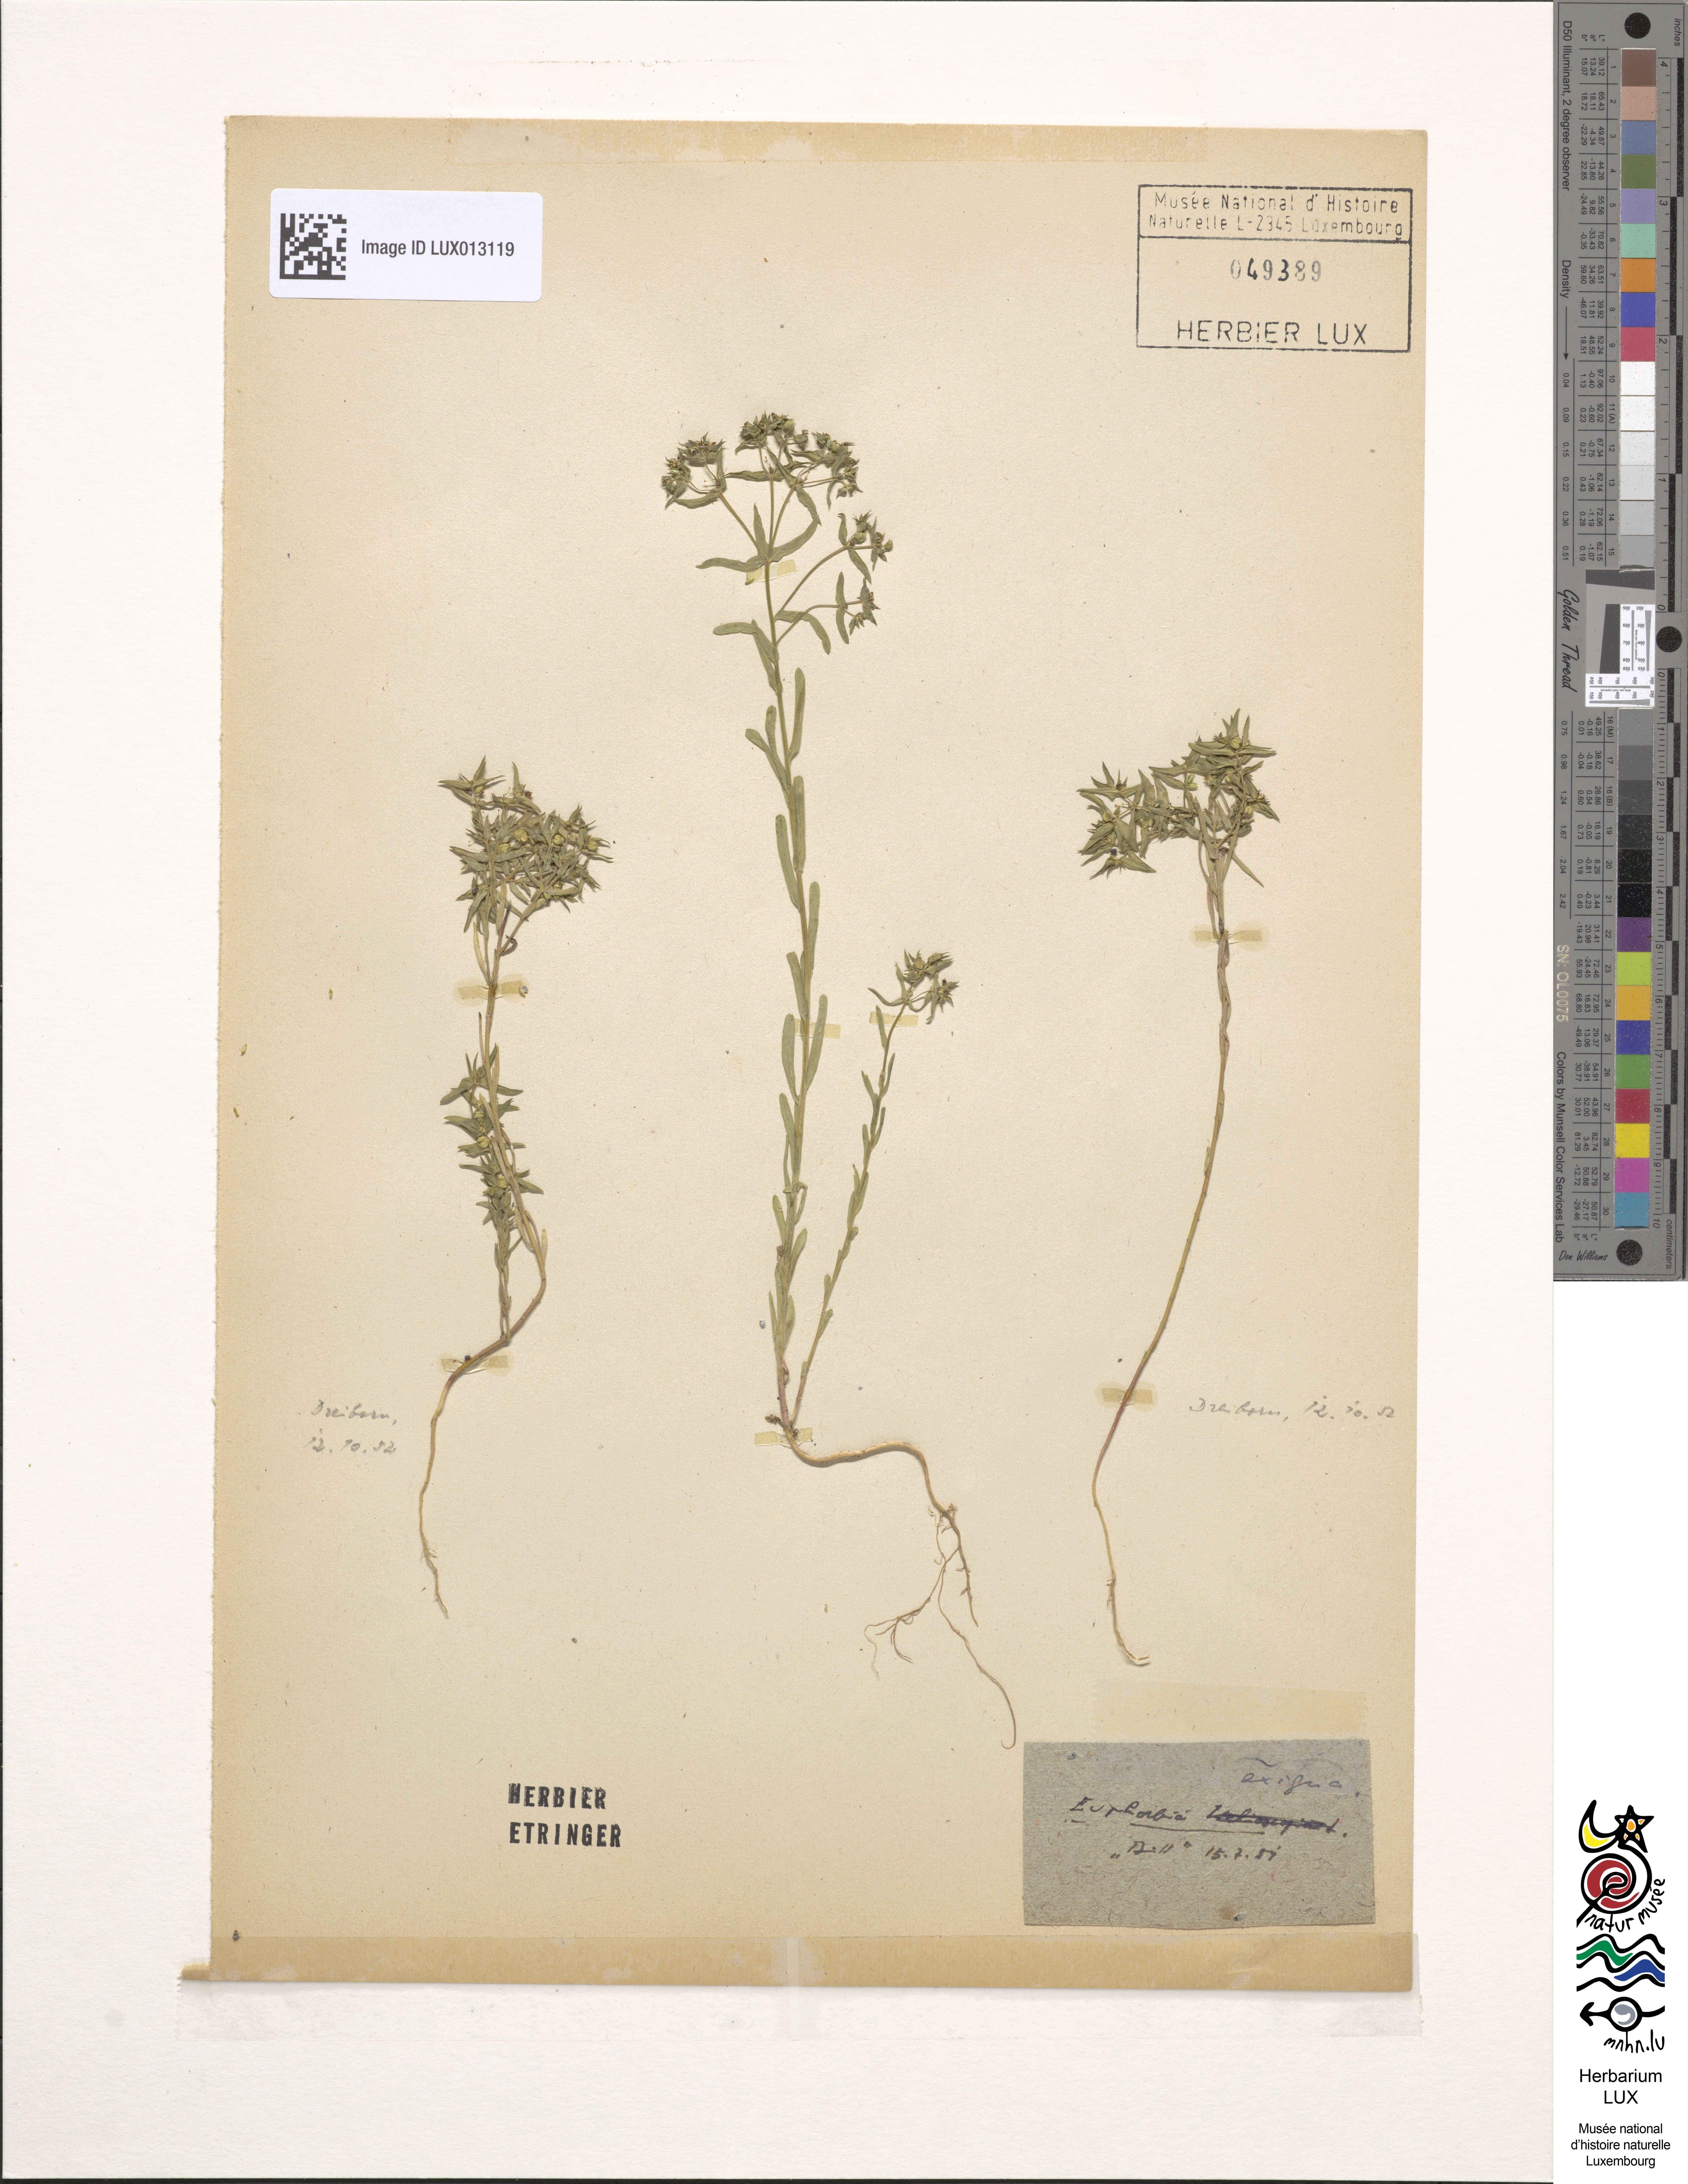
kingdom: Plantae
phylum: Tracheophyta
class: Magnoliopsida
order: Malpighiales
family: Euphorbiaceae
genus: Euphorbia
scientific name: Euphorbia exigua
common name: Dwarf spurge
